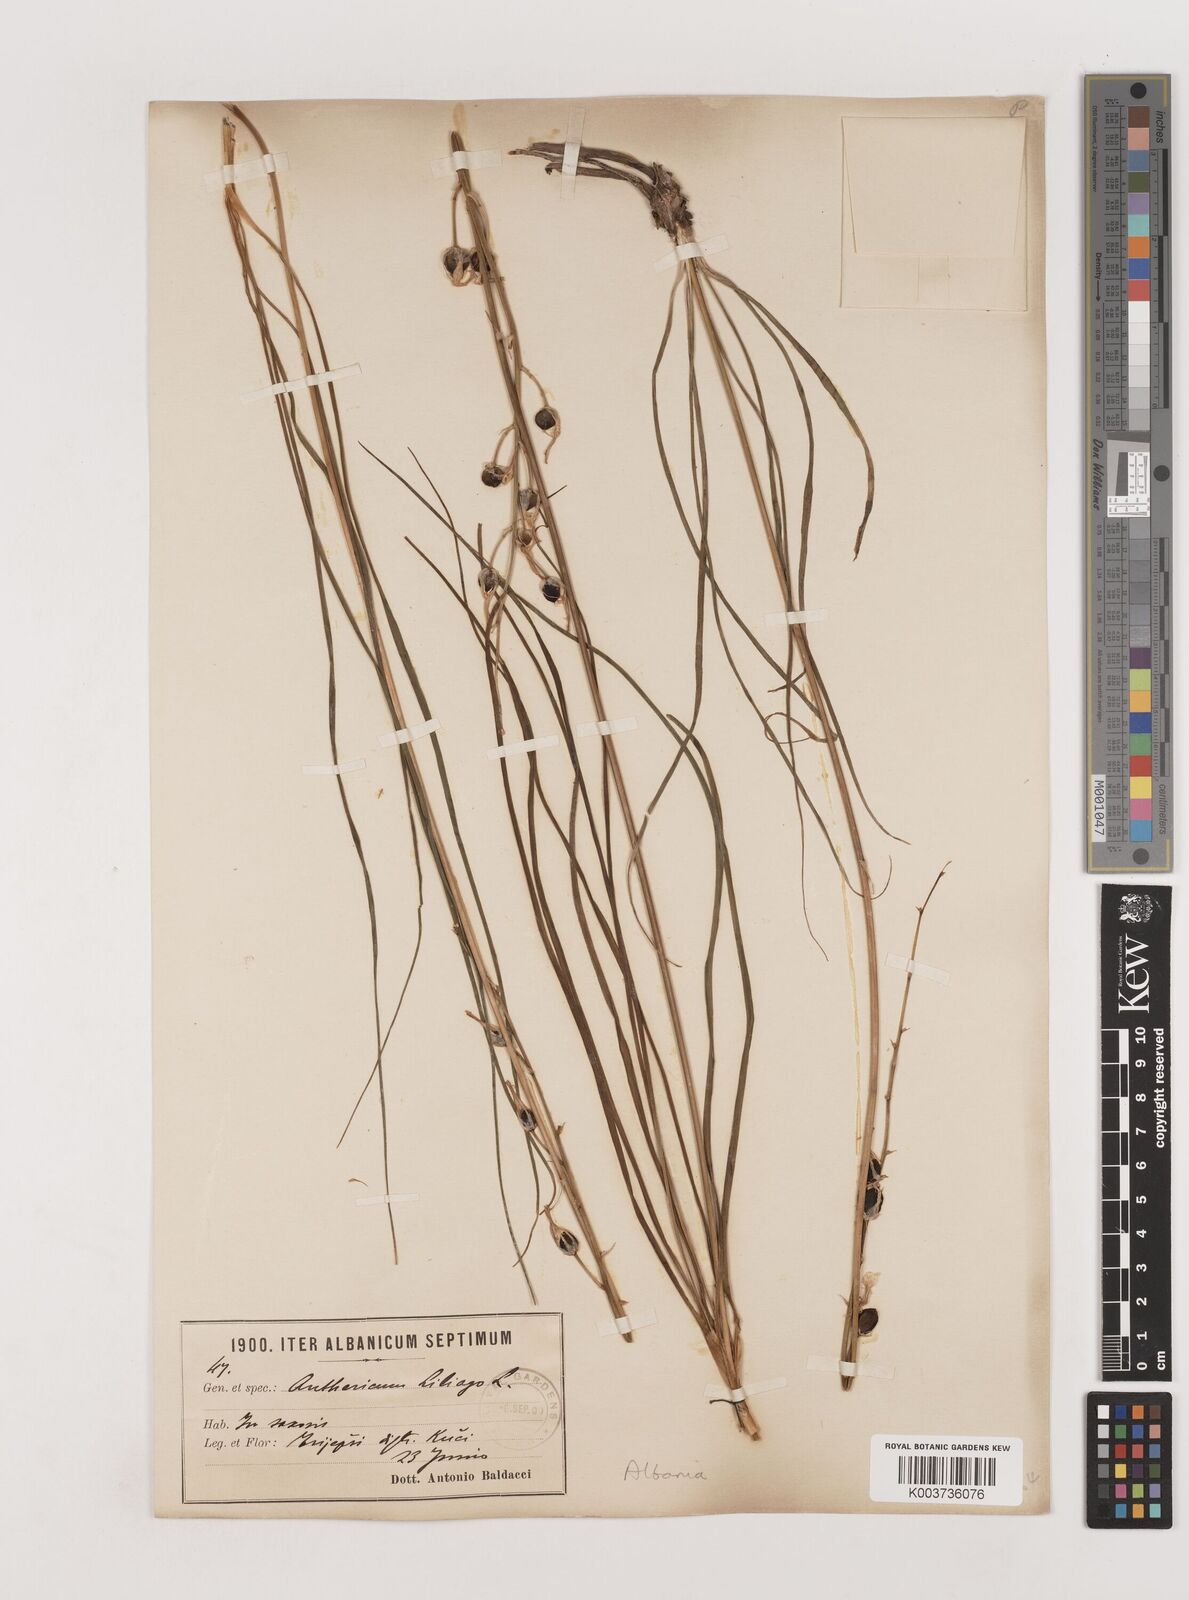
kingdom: Plantae
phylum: Tracheophyta
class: Liliopsida
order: Asparagales
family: Asparagaceae
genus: Anthericum
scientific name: Anthericum liliago
